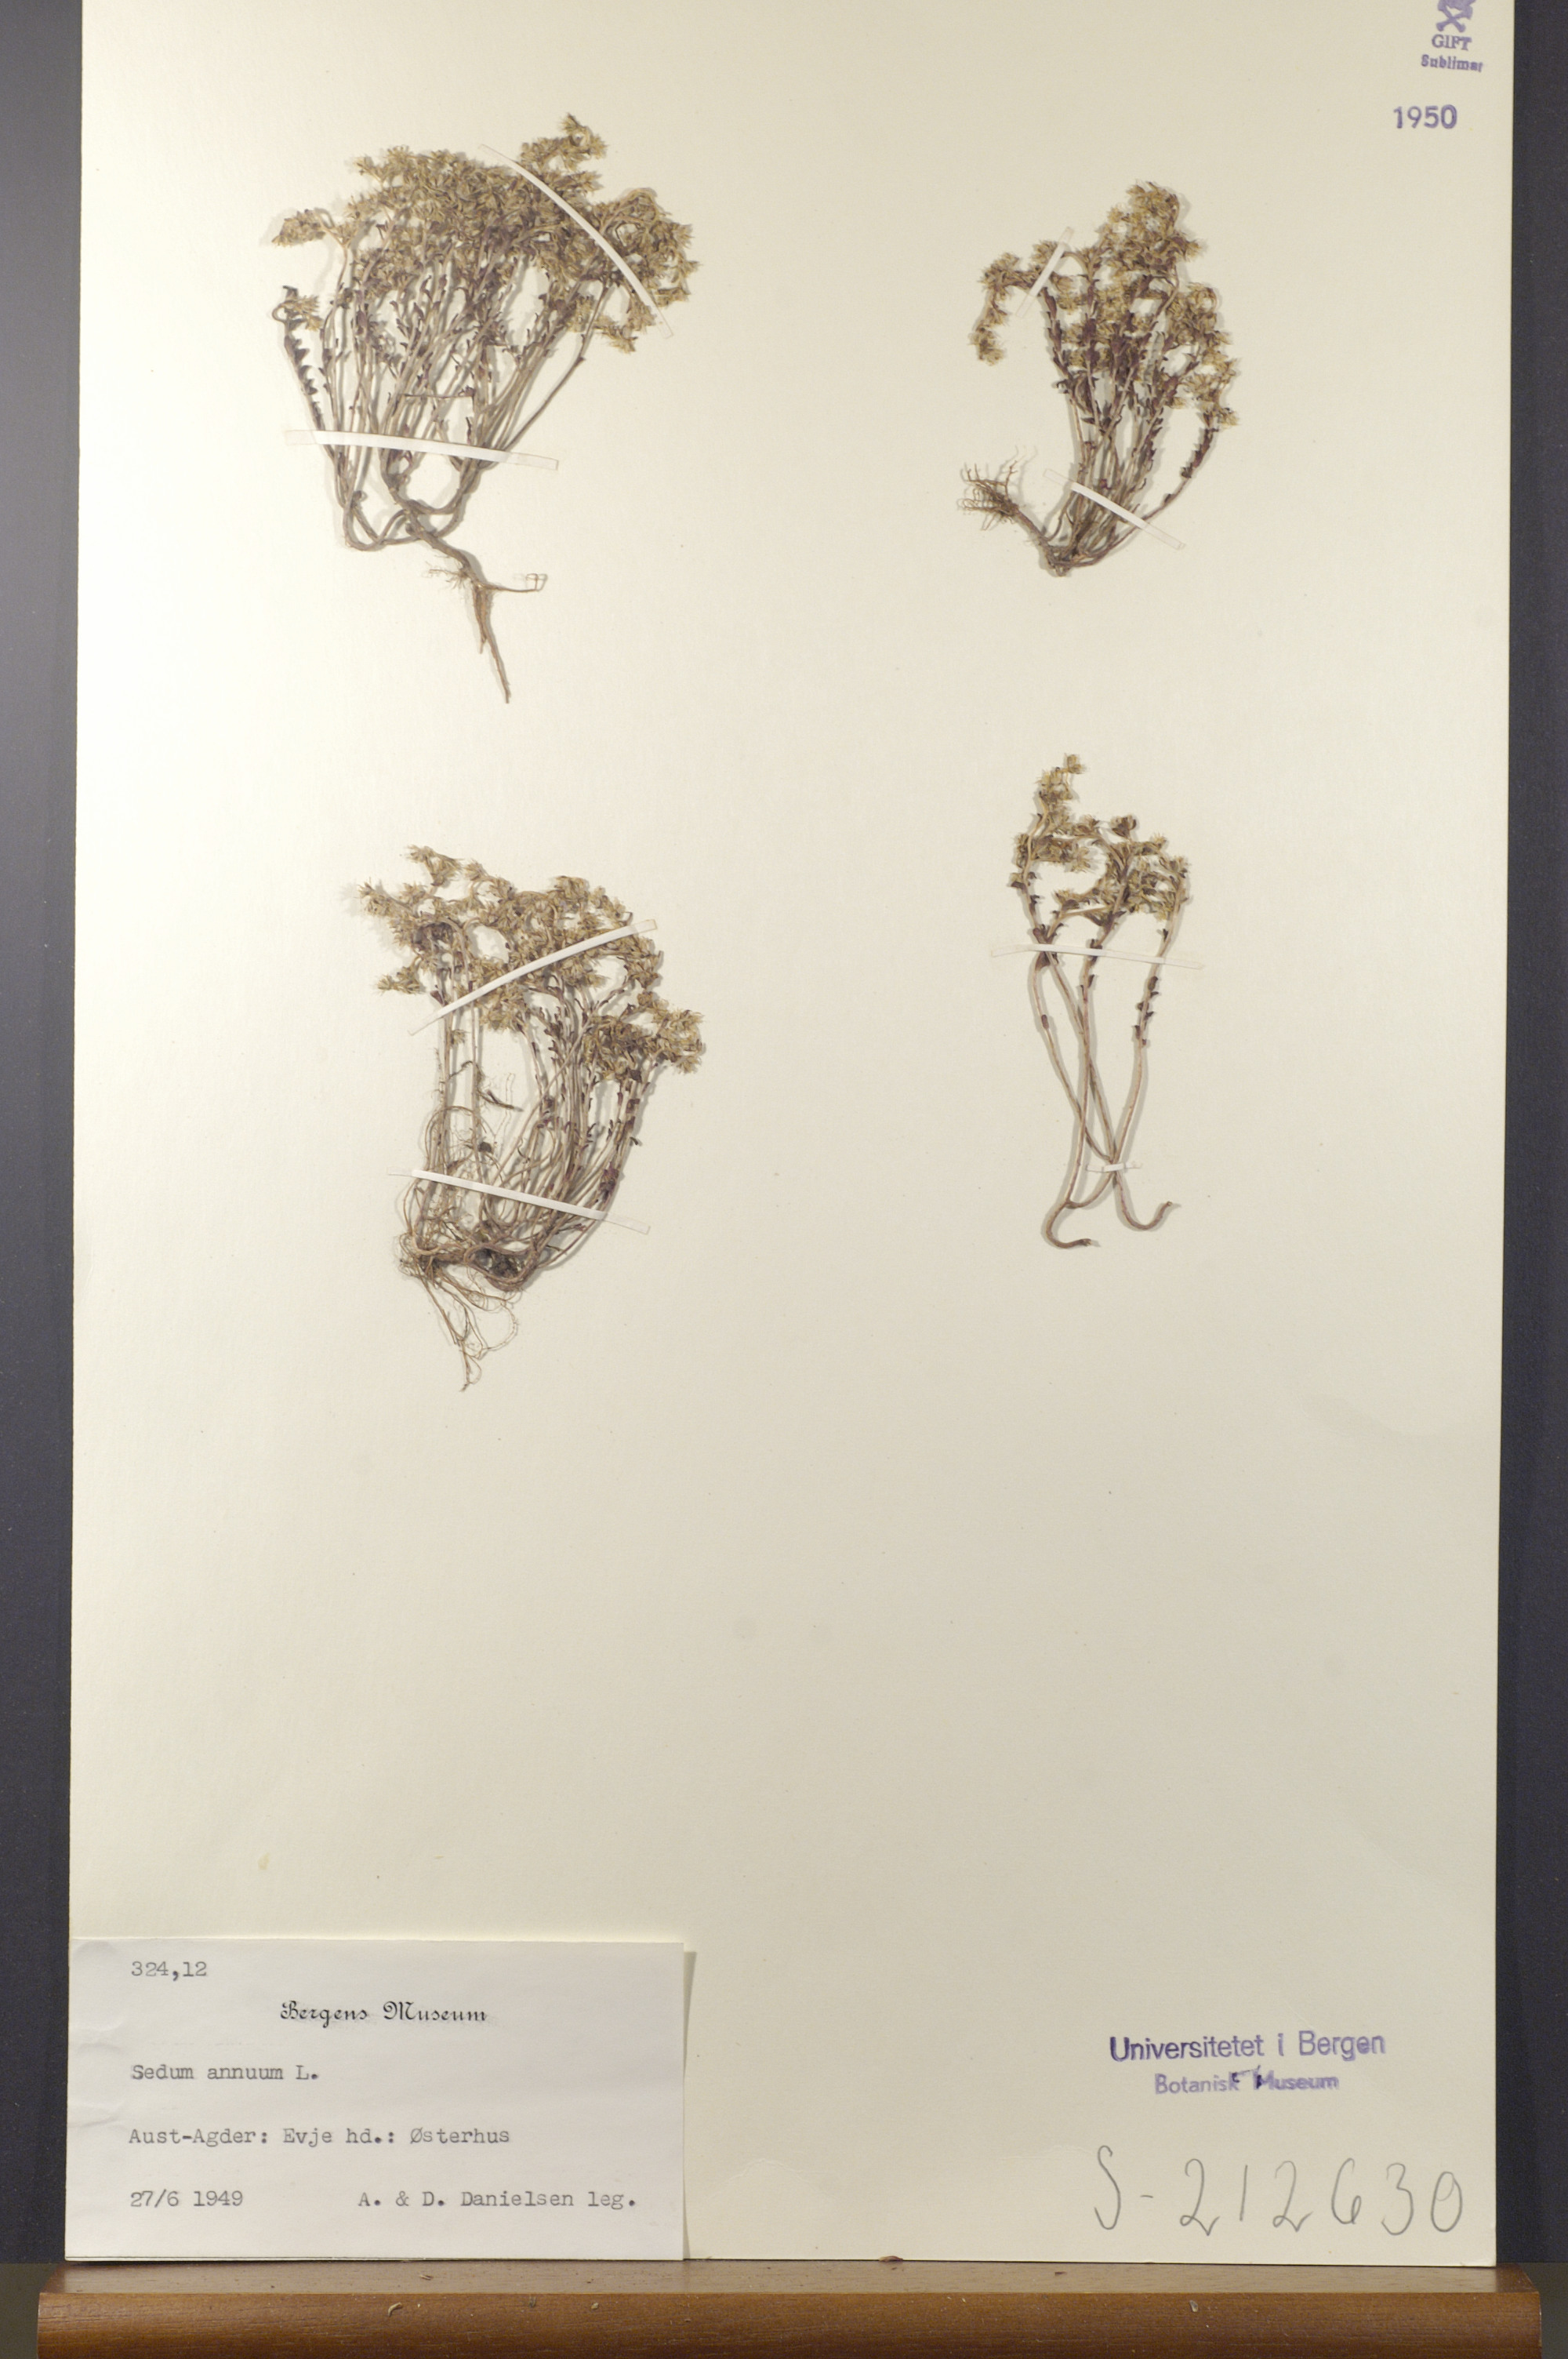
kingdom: Plantae
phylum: Tracheophyta
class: Magnoliopsida
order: Saxifragales
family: Crassulaceae
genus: Sedum
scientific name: Sedum annuum
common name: Annual stonecrop
